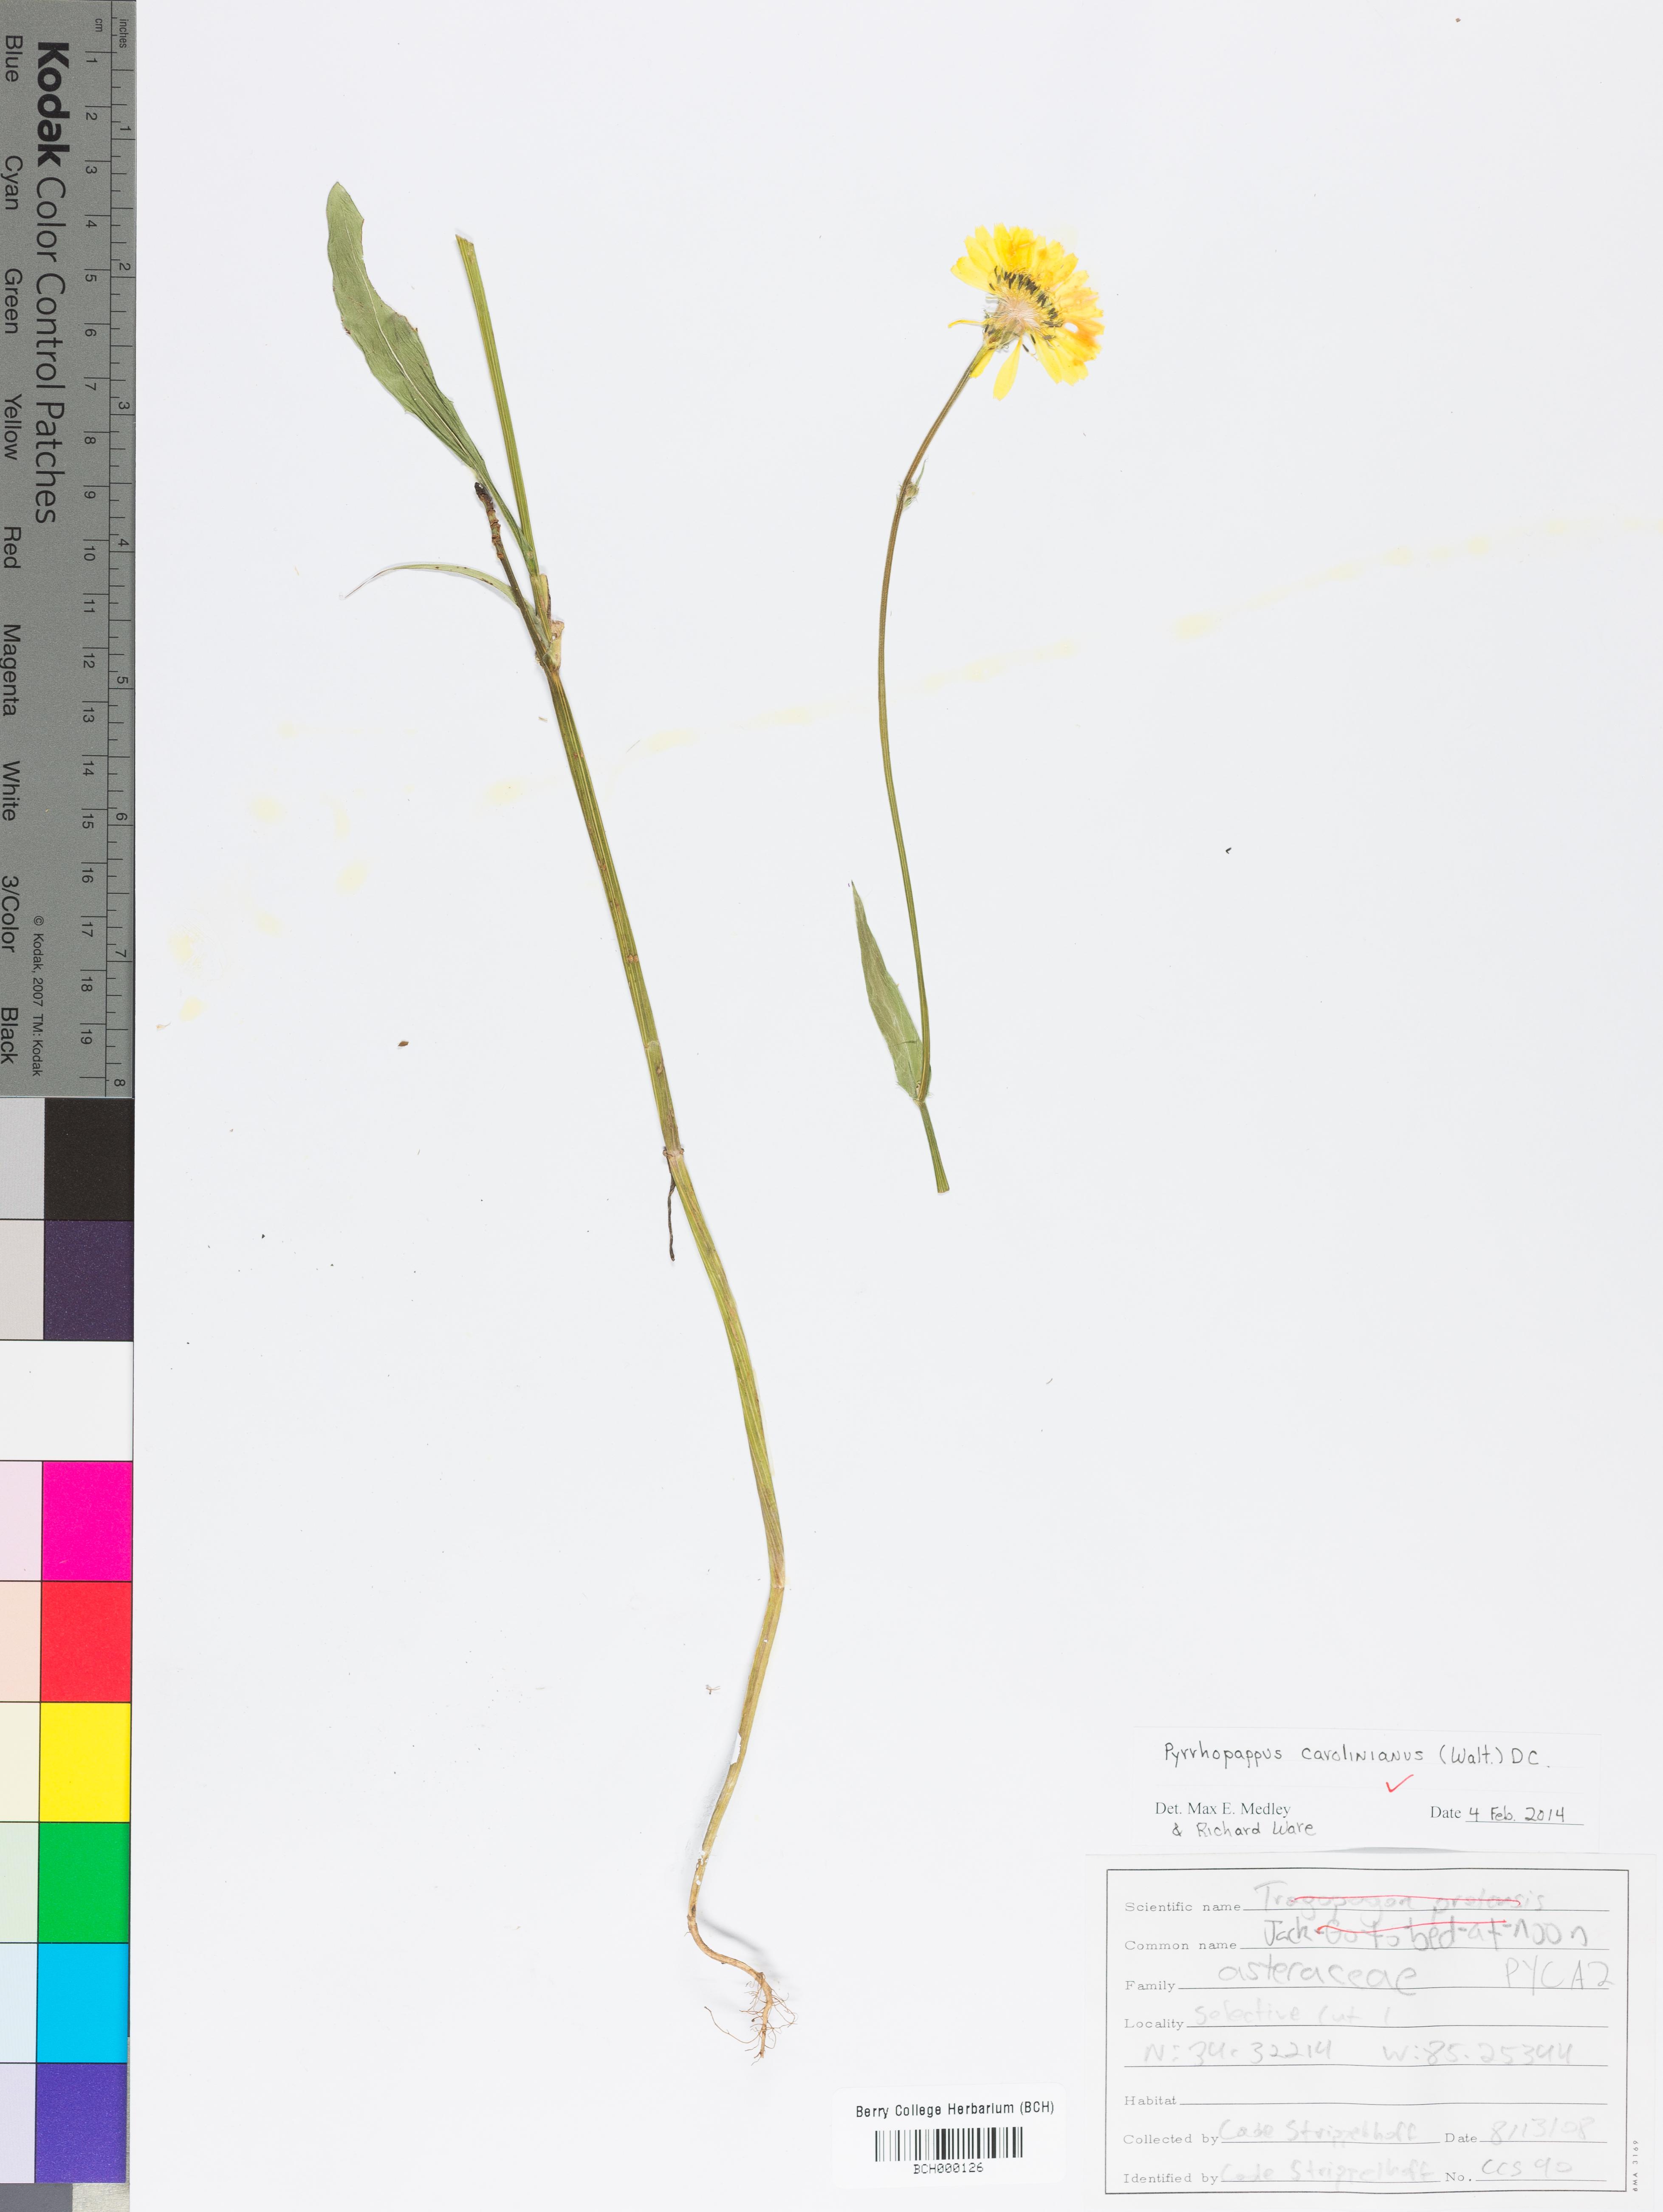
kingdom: Plantae
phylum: Tracheophyta
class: Magnoliopsida
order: Asterales
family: Asteraceae
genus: Pyrrhopappus
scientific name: Pyrrhopappus carolinianus
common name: Carolina desert-chicory
